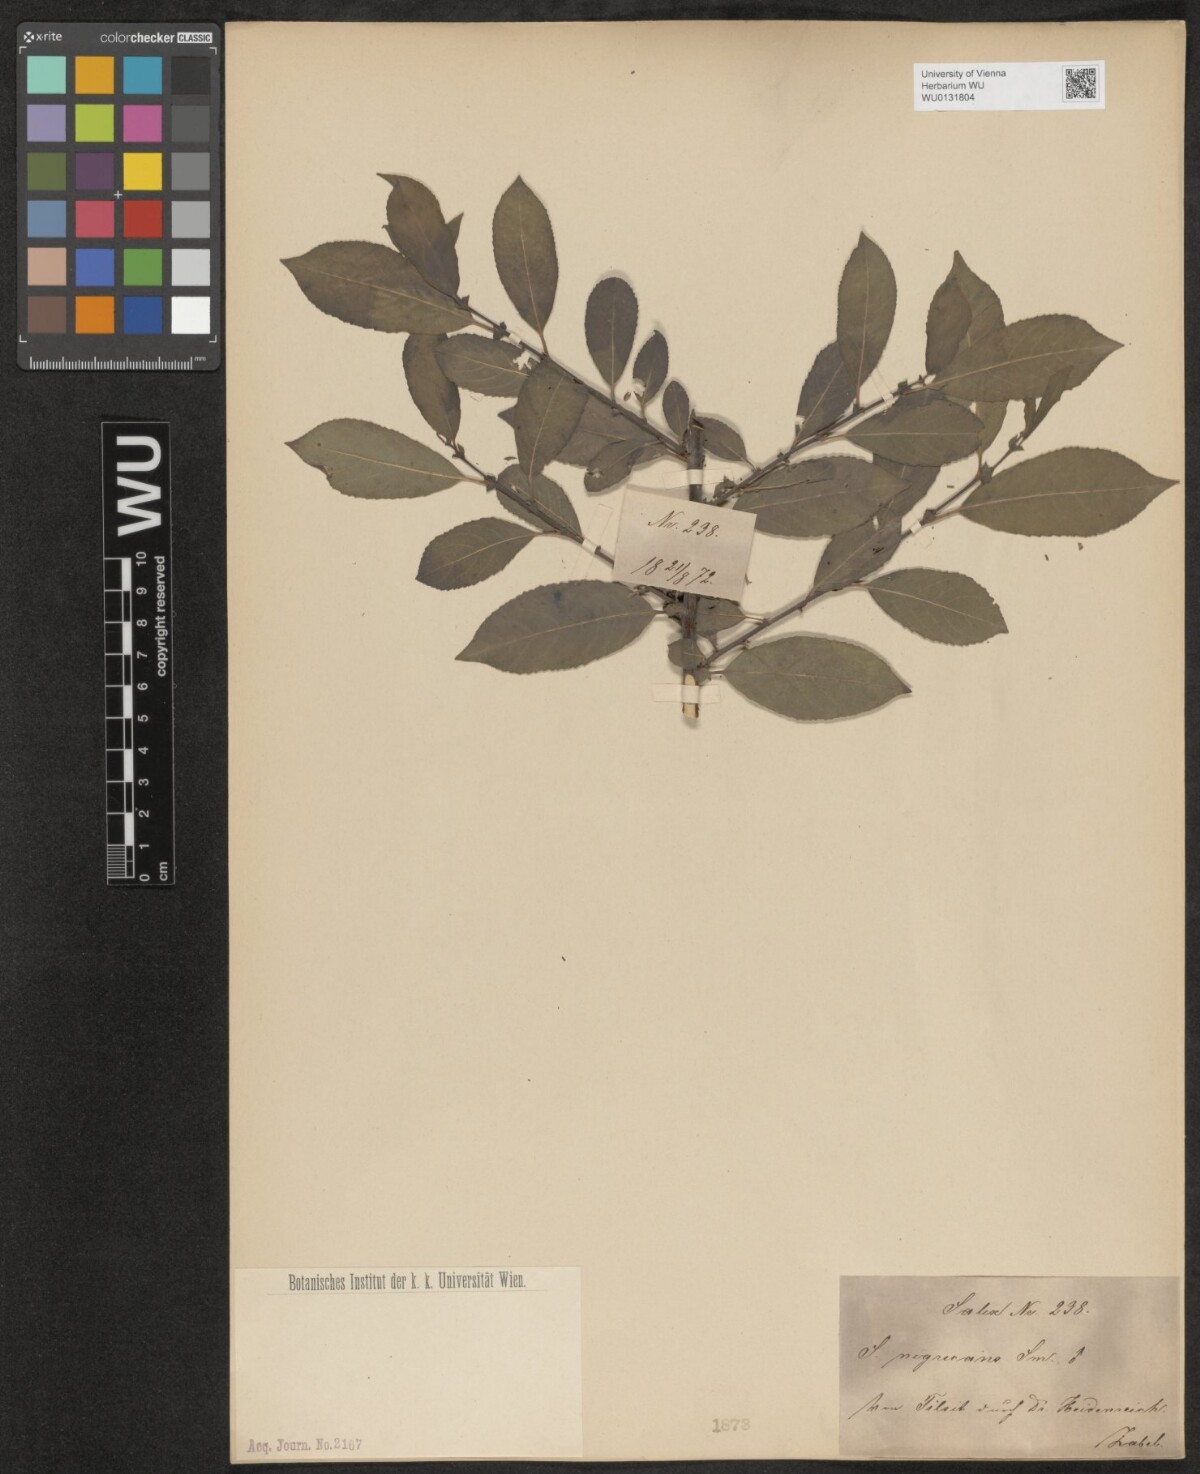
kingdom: Plantae
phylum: Tracheophyta
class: Magnoliopsida
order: Malpighiales
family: Salicaceae
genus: Salix
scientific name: Salix myrsinifolia
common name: Dark-leaved willow
